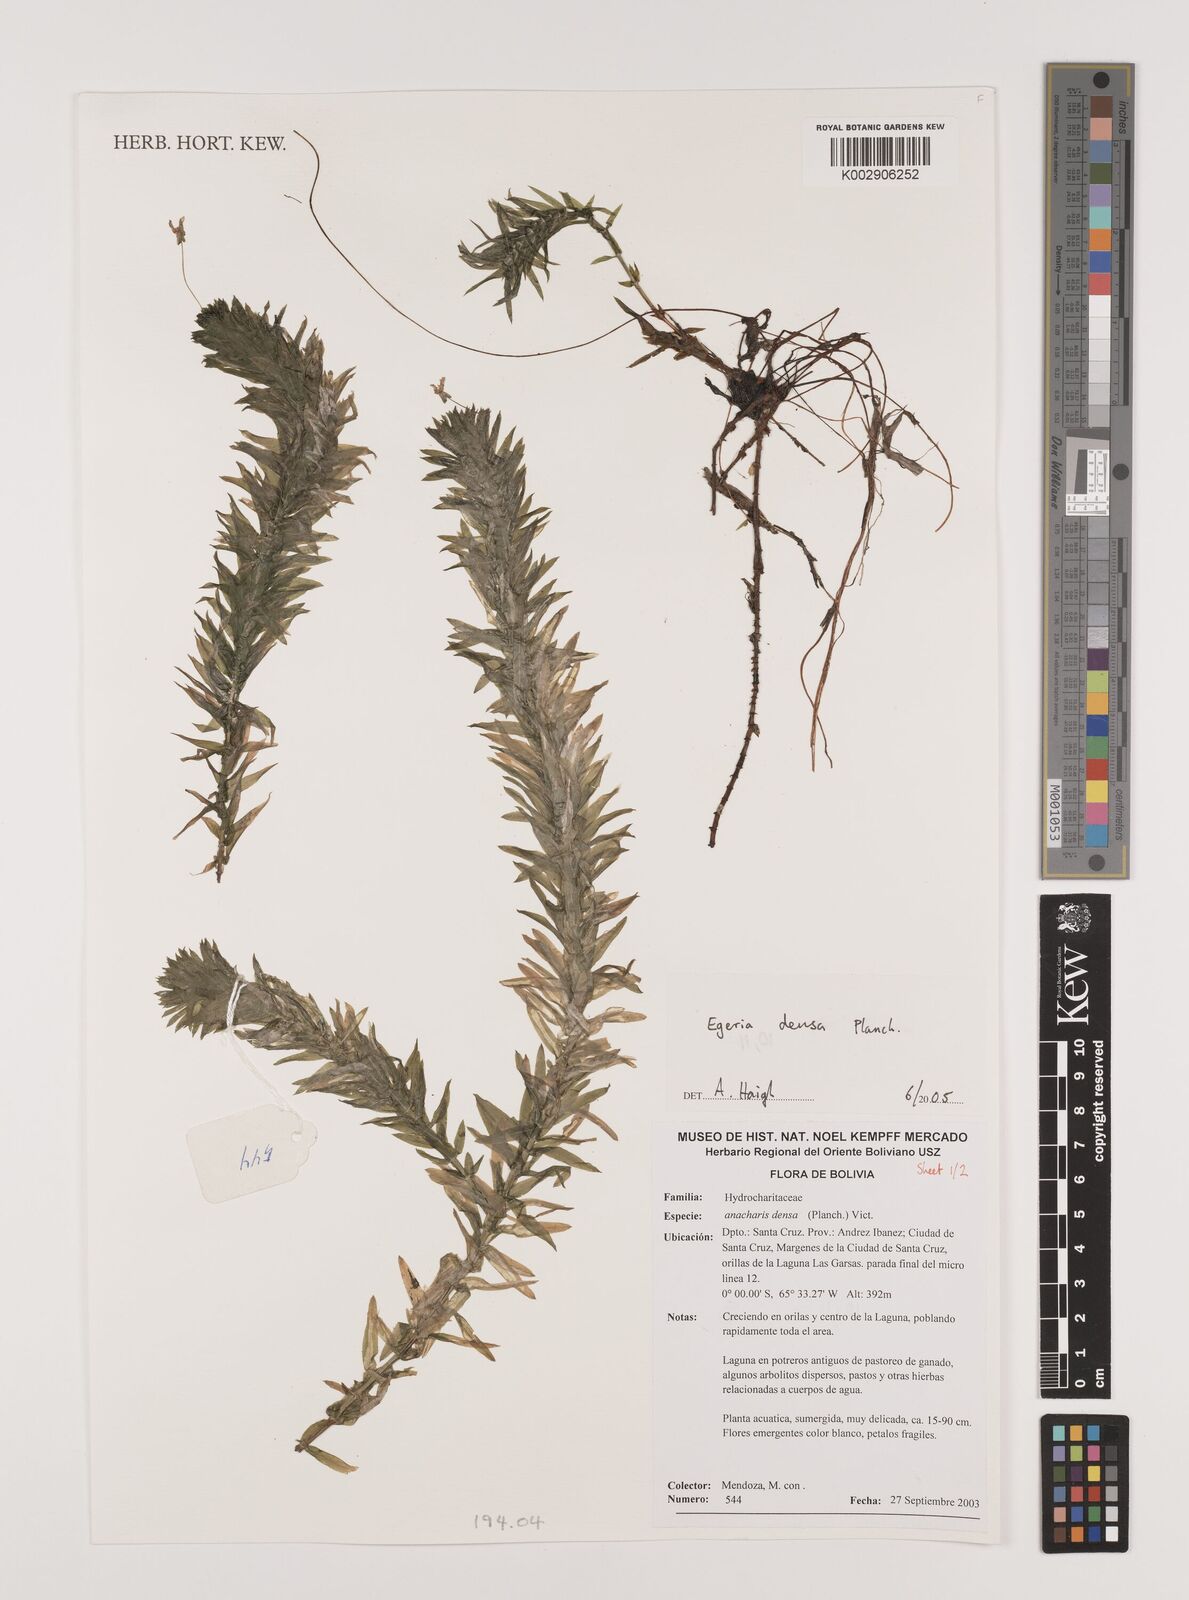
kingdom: Plantae
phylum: Tracheophyta
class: Liliopsida
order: Alismatales
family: Hydrocharitaceae
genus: Elodea
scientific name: Elodea densa
